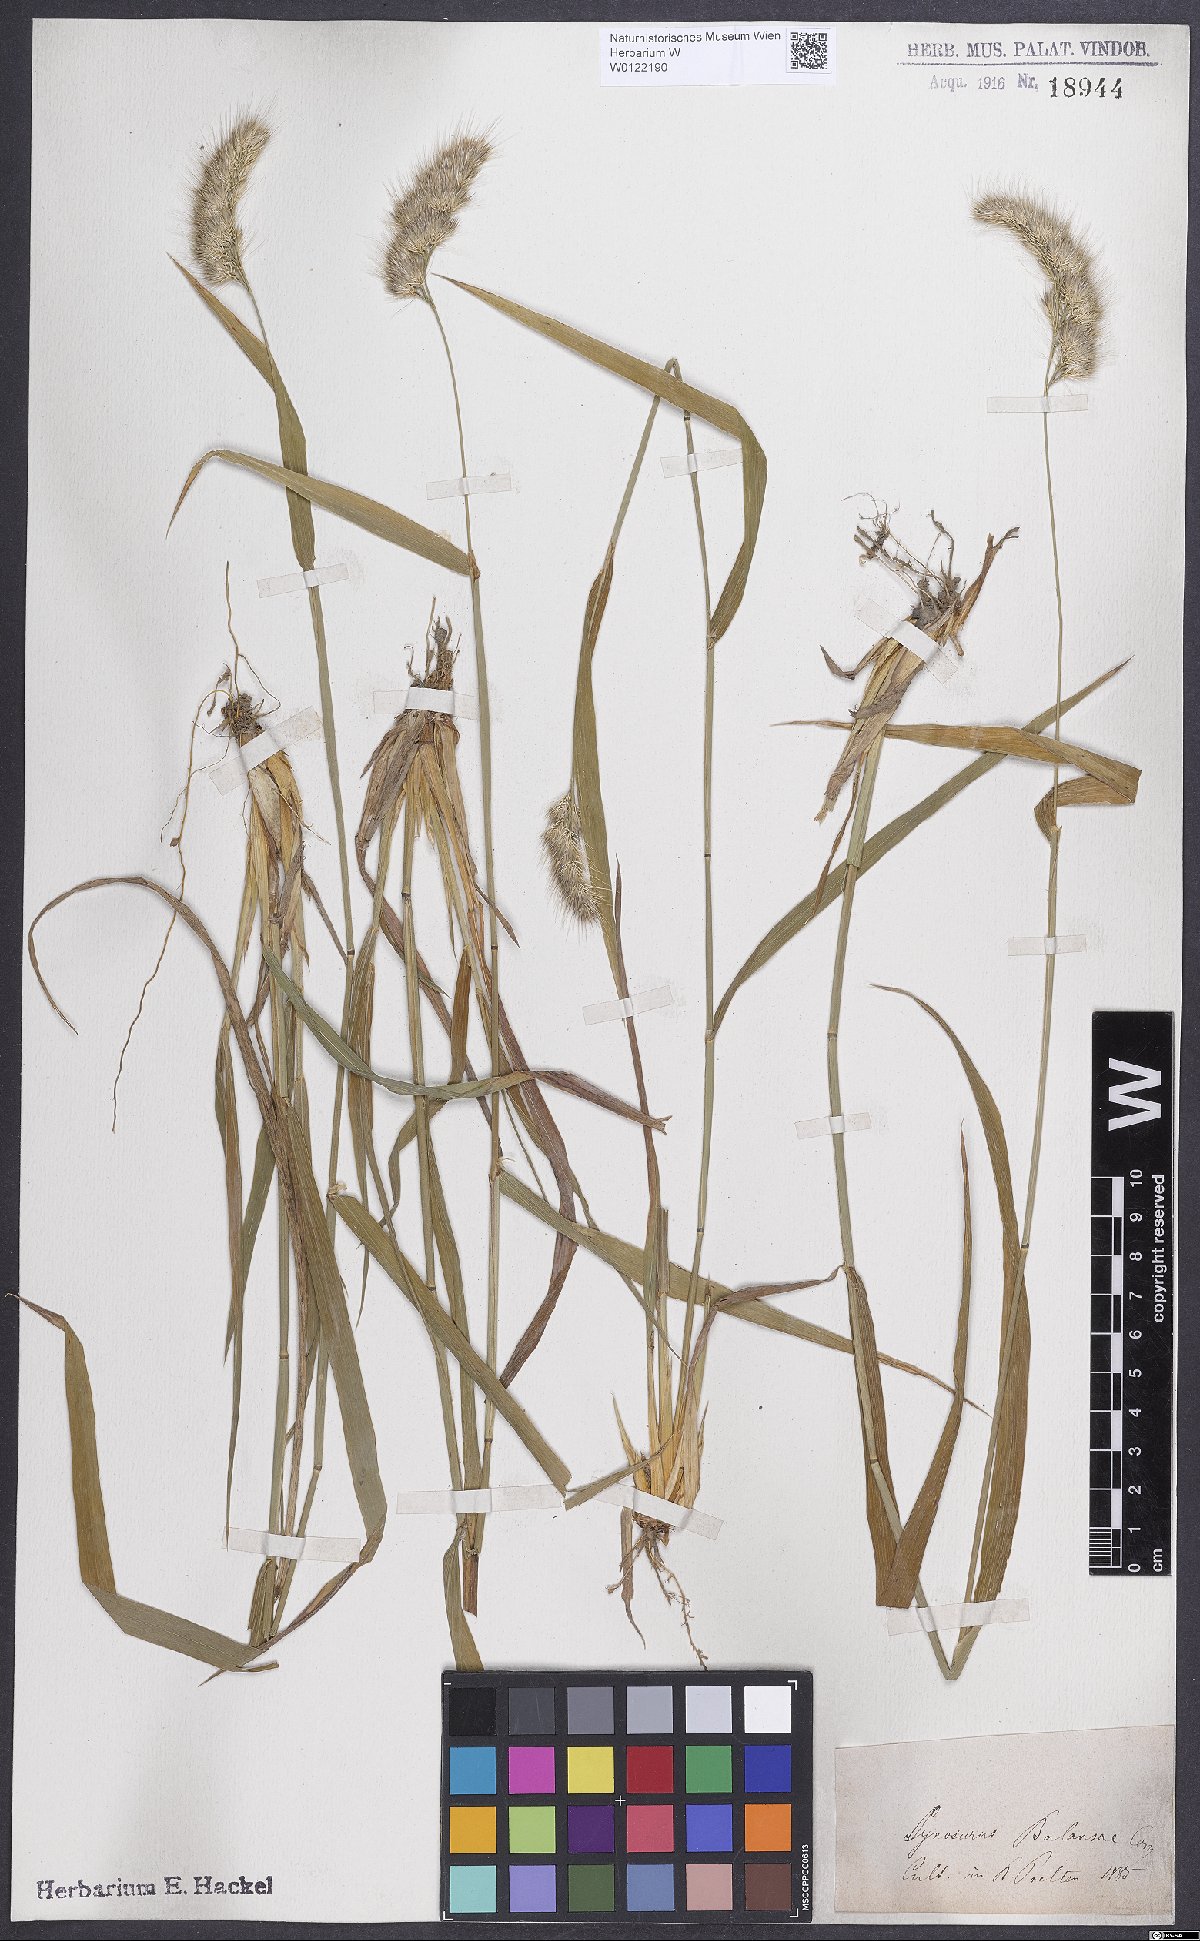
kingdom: Plantae
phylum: Tracheophyta
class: Liliopsida
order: Poales
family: Poaceae
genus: Cynosurus
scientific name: Cynosurus balansae
